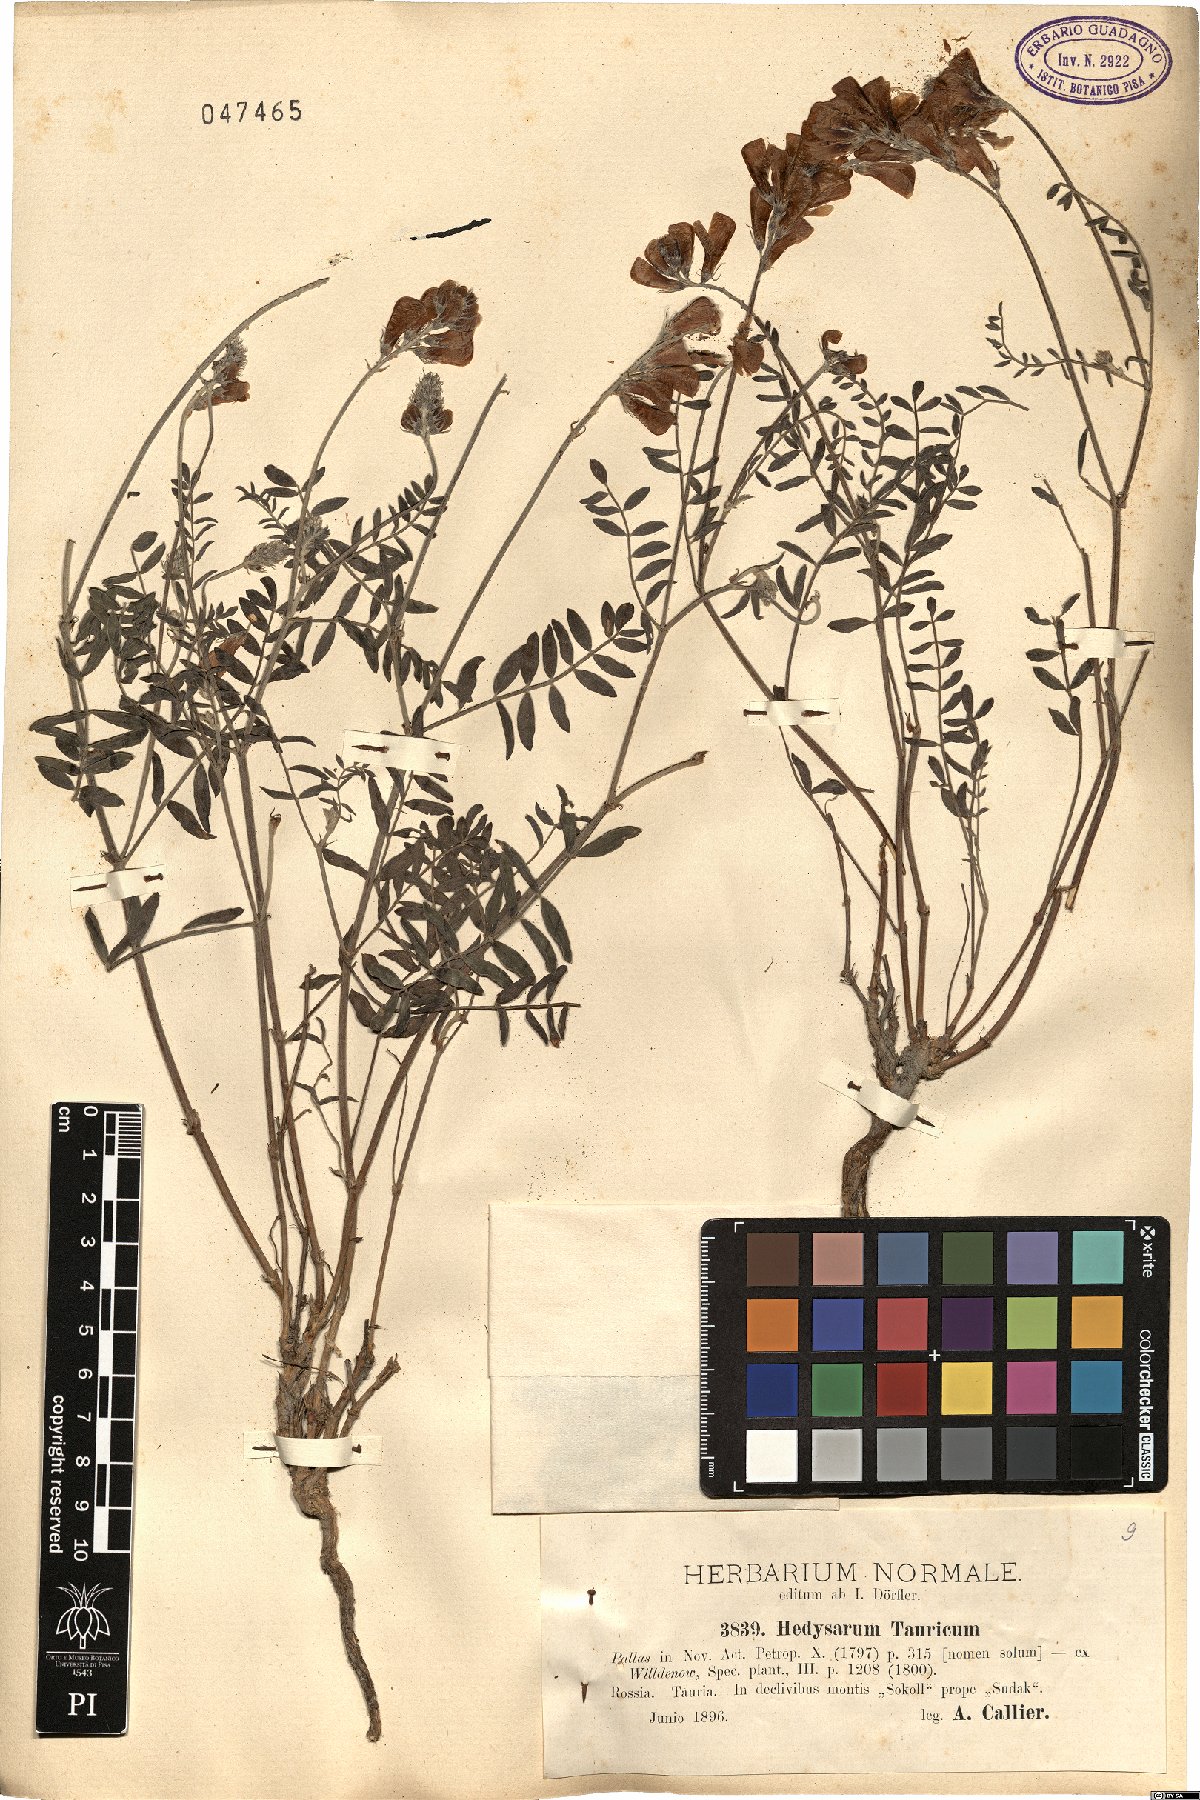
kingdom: Plantae
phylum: Tracheophyta
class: Magnoliopsida
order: Fabales
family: Fabaceae
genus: Hedysarum
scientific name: Hedysarum tauricum
